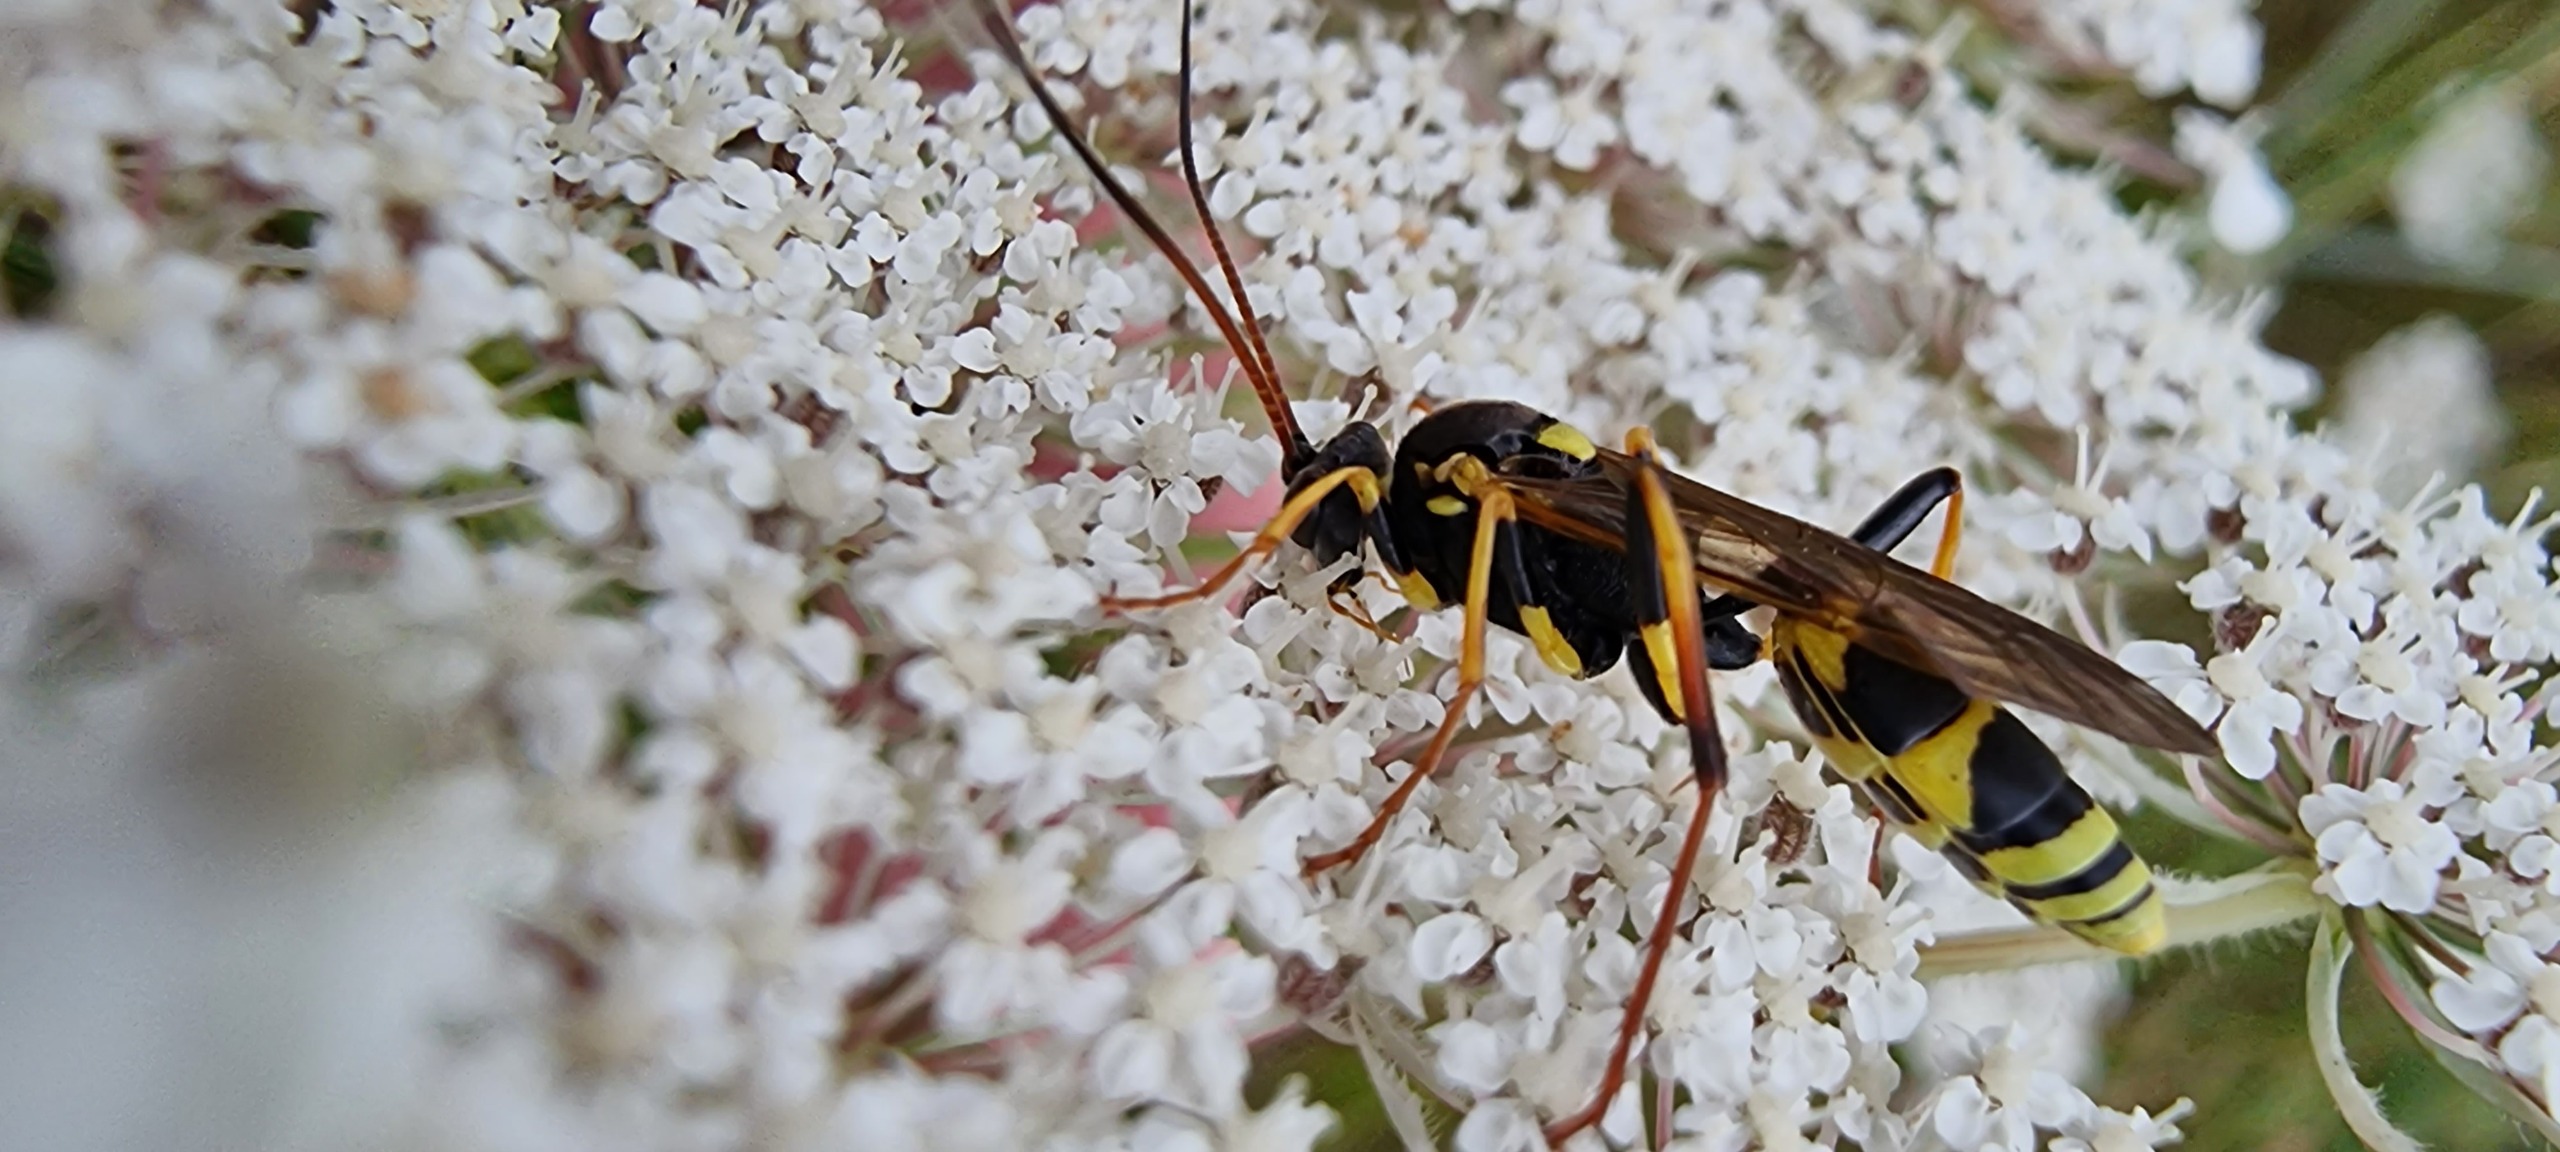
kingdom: Animalia
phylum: Arthropoda
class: Insecta
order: Hymenoptera
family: Ichneumonidae
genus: Amblyteles
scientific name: Amblyteles armatorius
